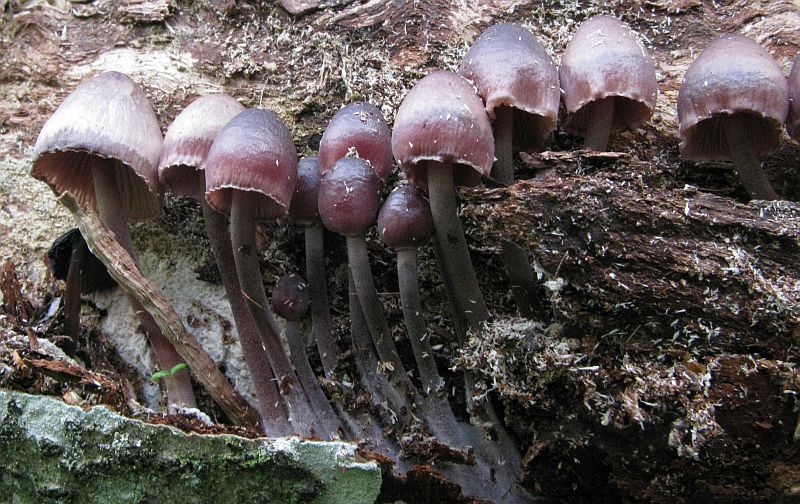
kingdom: Fungi
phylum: Basidiomycota
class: Agaricomycetes
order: Agaricales
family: Mycenaceae
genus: Mycena
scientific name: Mycena haematopus
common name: blødende huesvamp
